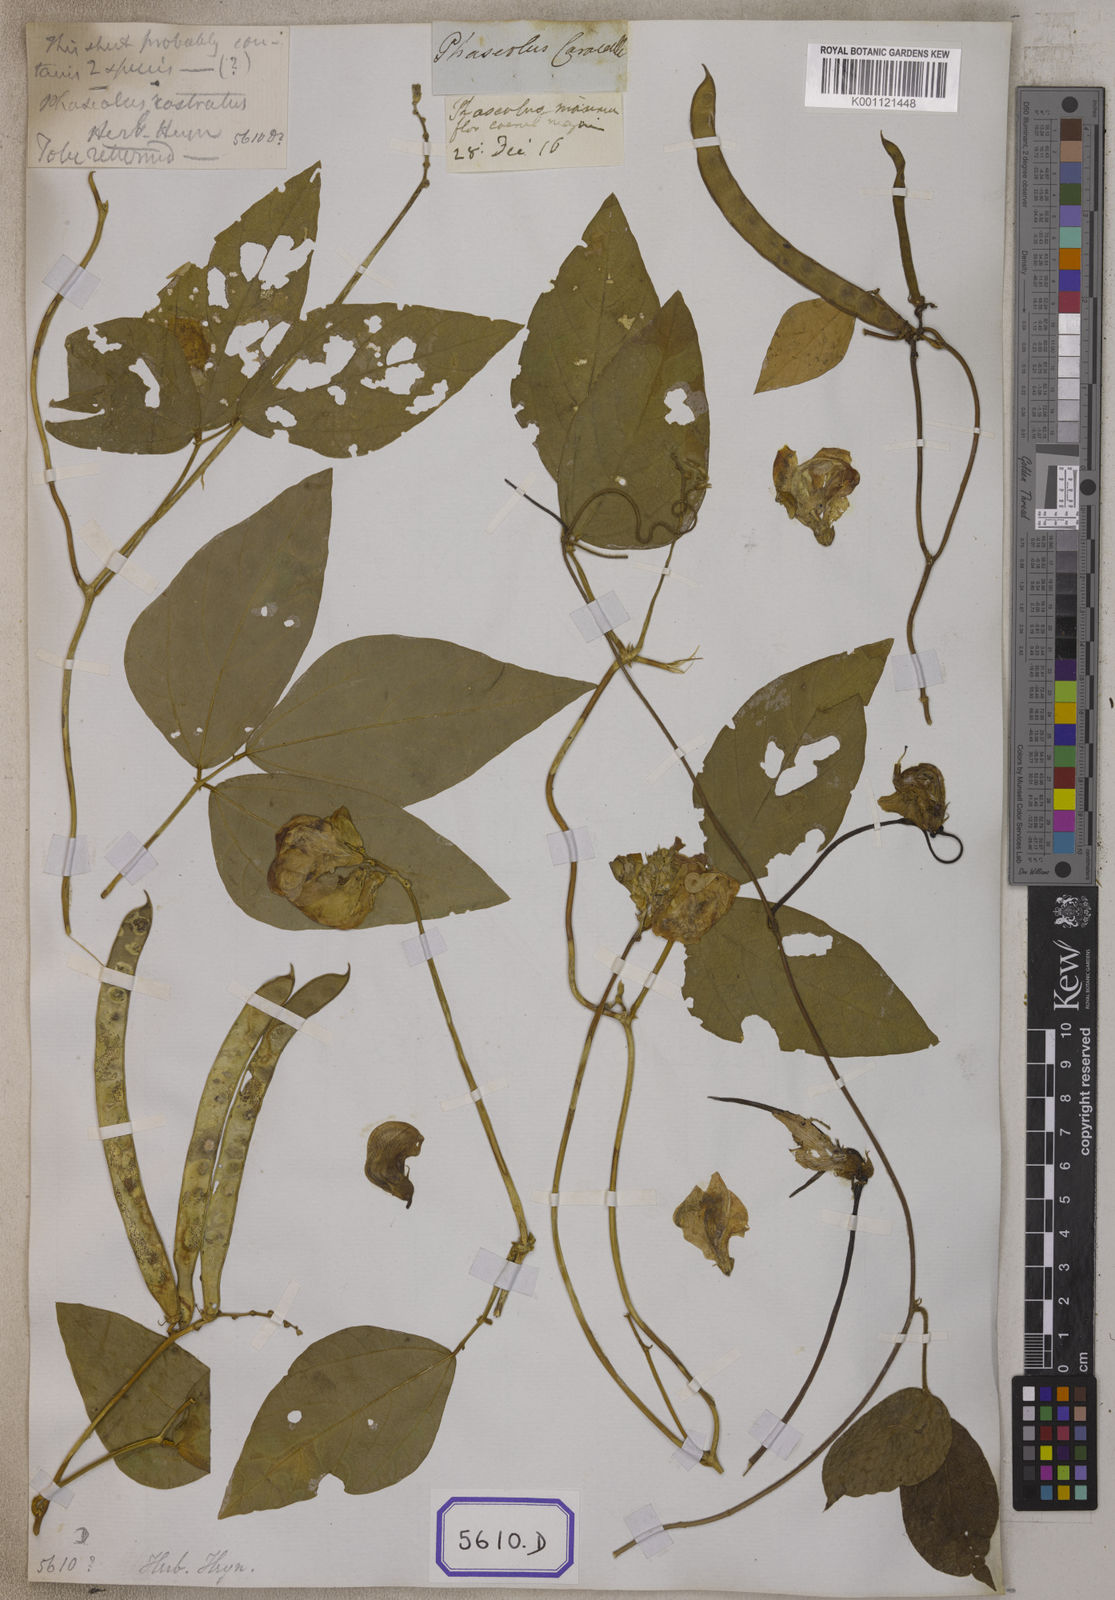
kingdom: Plantae
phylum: Tracheophyta
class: Magnoliopsida
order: Fabales
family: Fabaceae
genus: Leptospron
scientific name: Leptospron adenanthum
